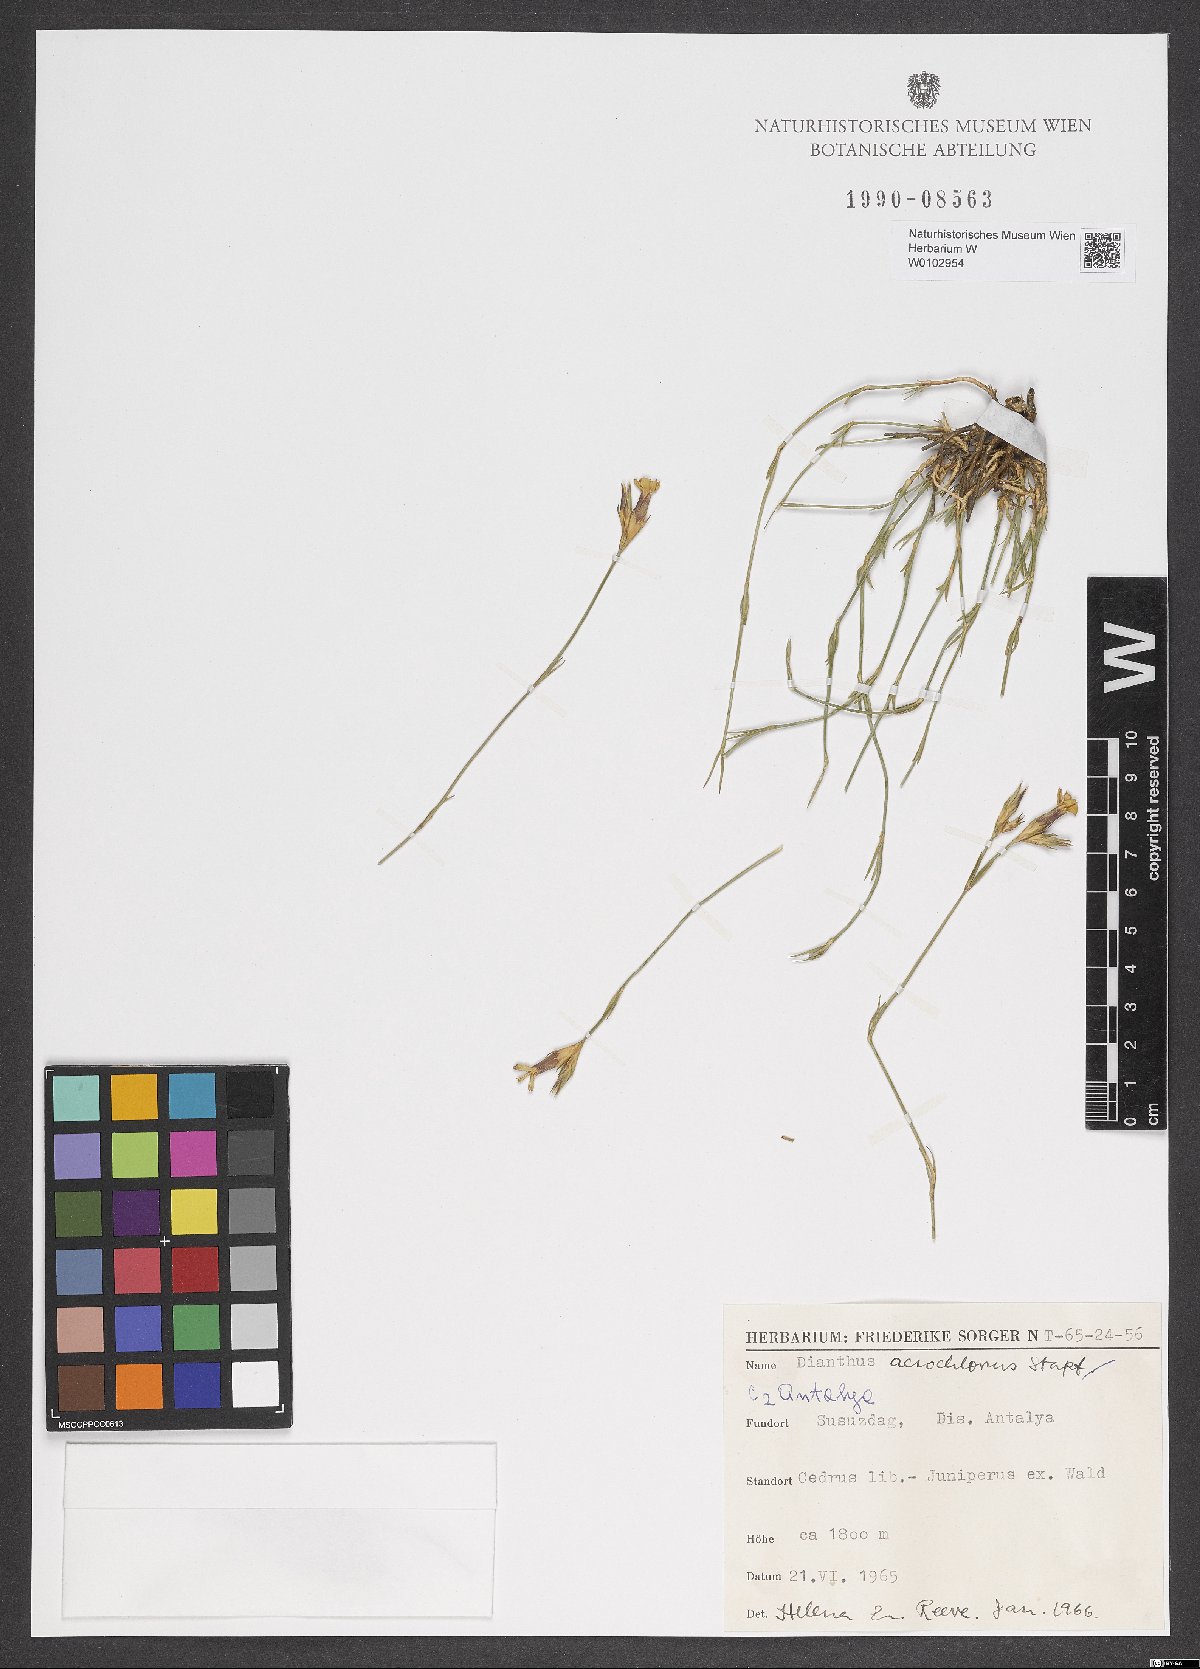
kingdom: Plantae
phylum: Tracheophyta
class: Magnoliopsida
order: Caryophyllales
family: Caryophyllaceae
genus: Dianthus
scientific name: Dianthus acrochlorus
